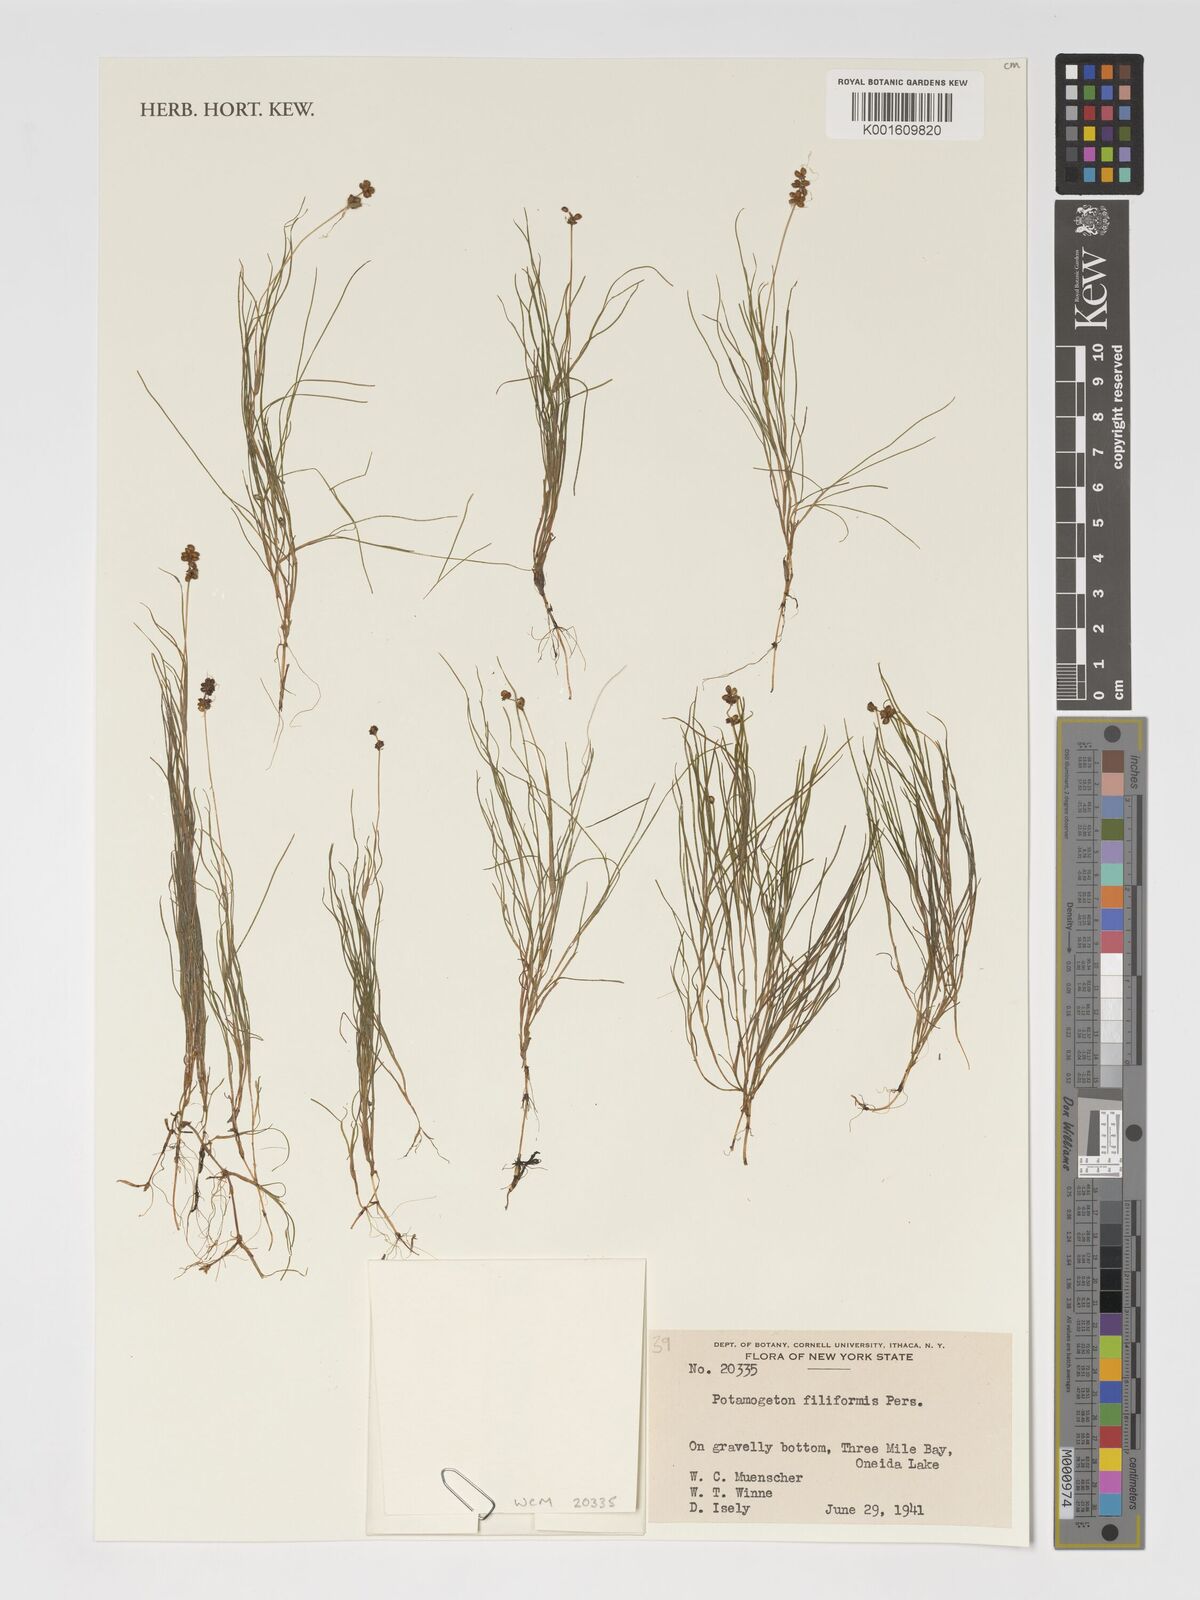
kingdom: Plantae
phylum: Tracheophyta
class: Liliopsida
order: Alismatales
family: Potamogetonaceae
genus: Stuckenia
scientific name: Stuckenia filiformis
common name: Alpine thread-leaved pondweed
